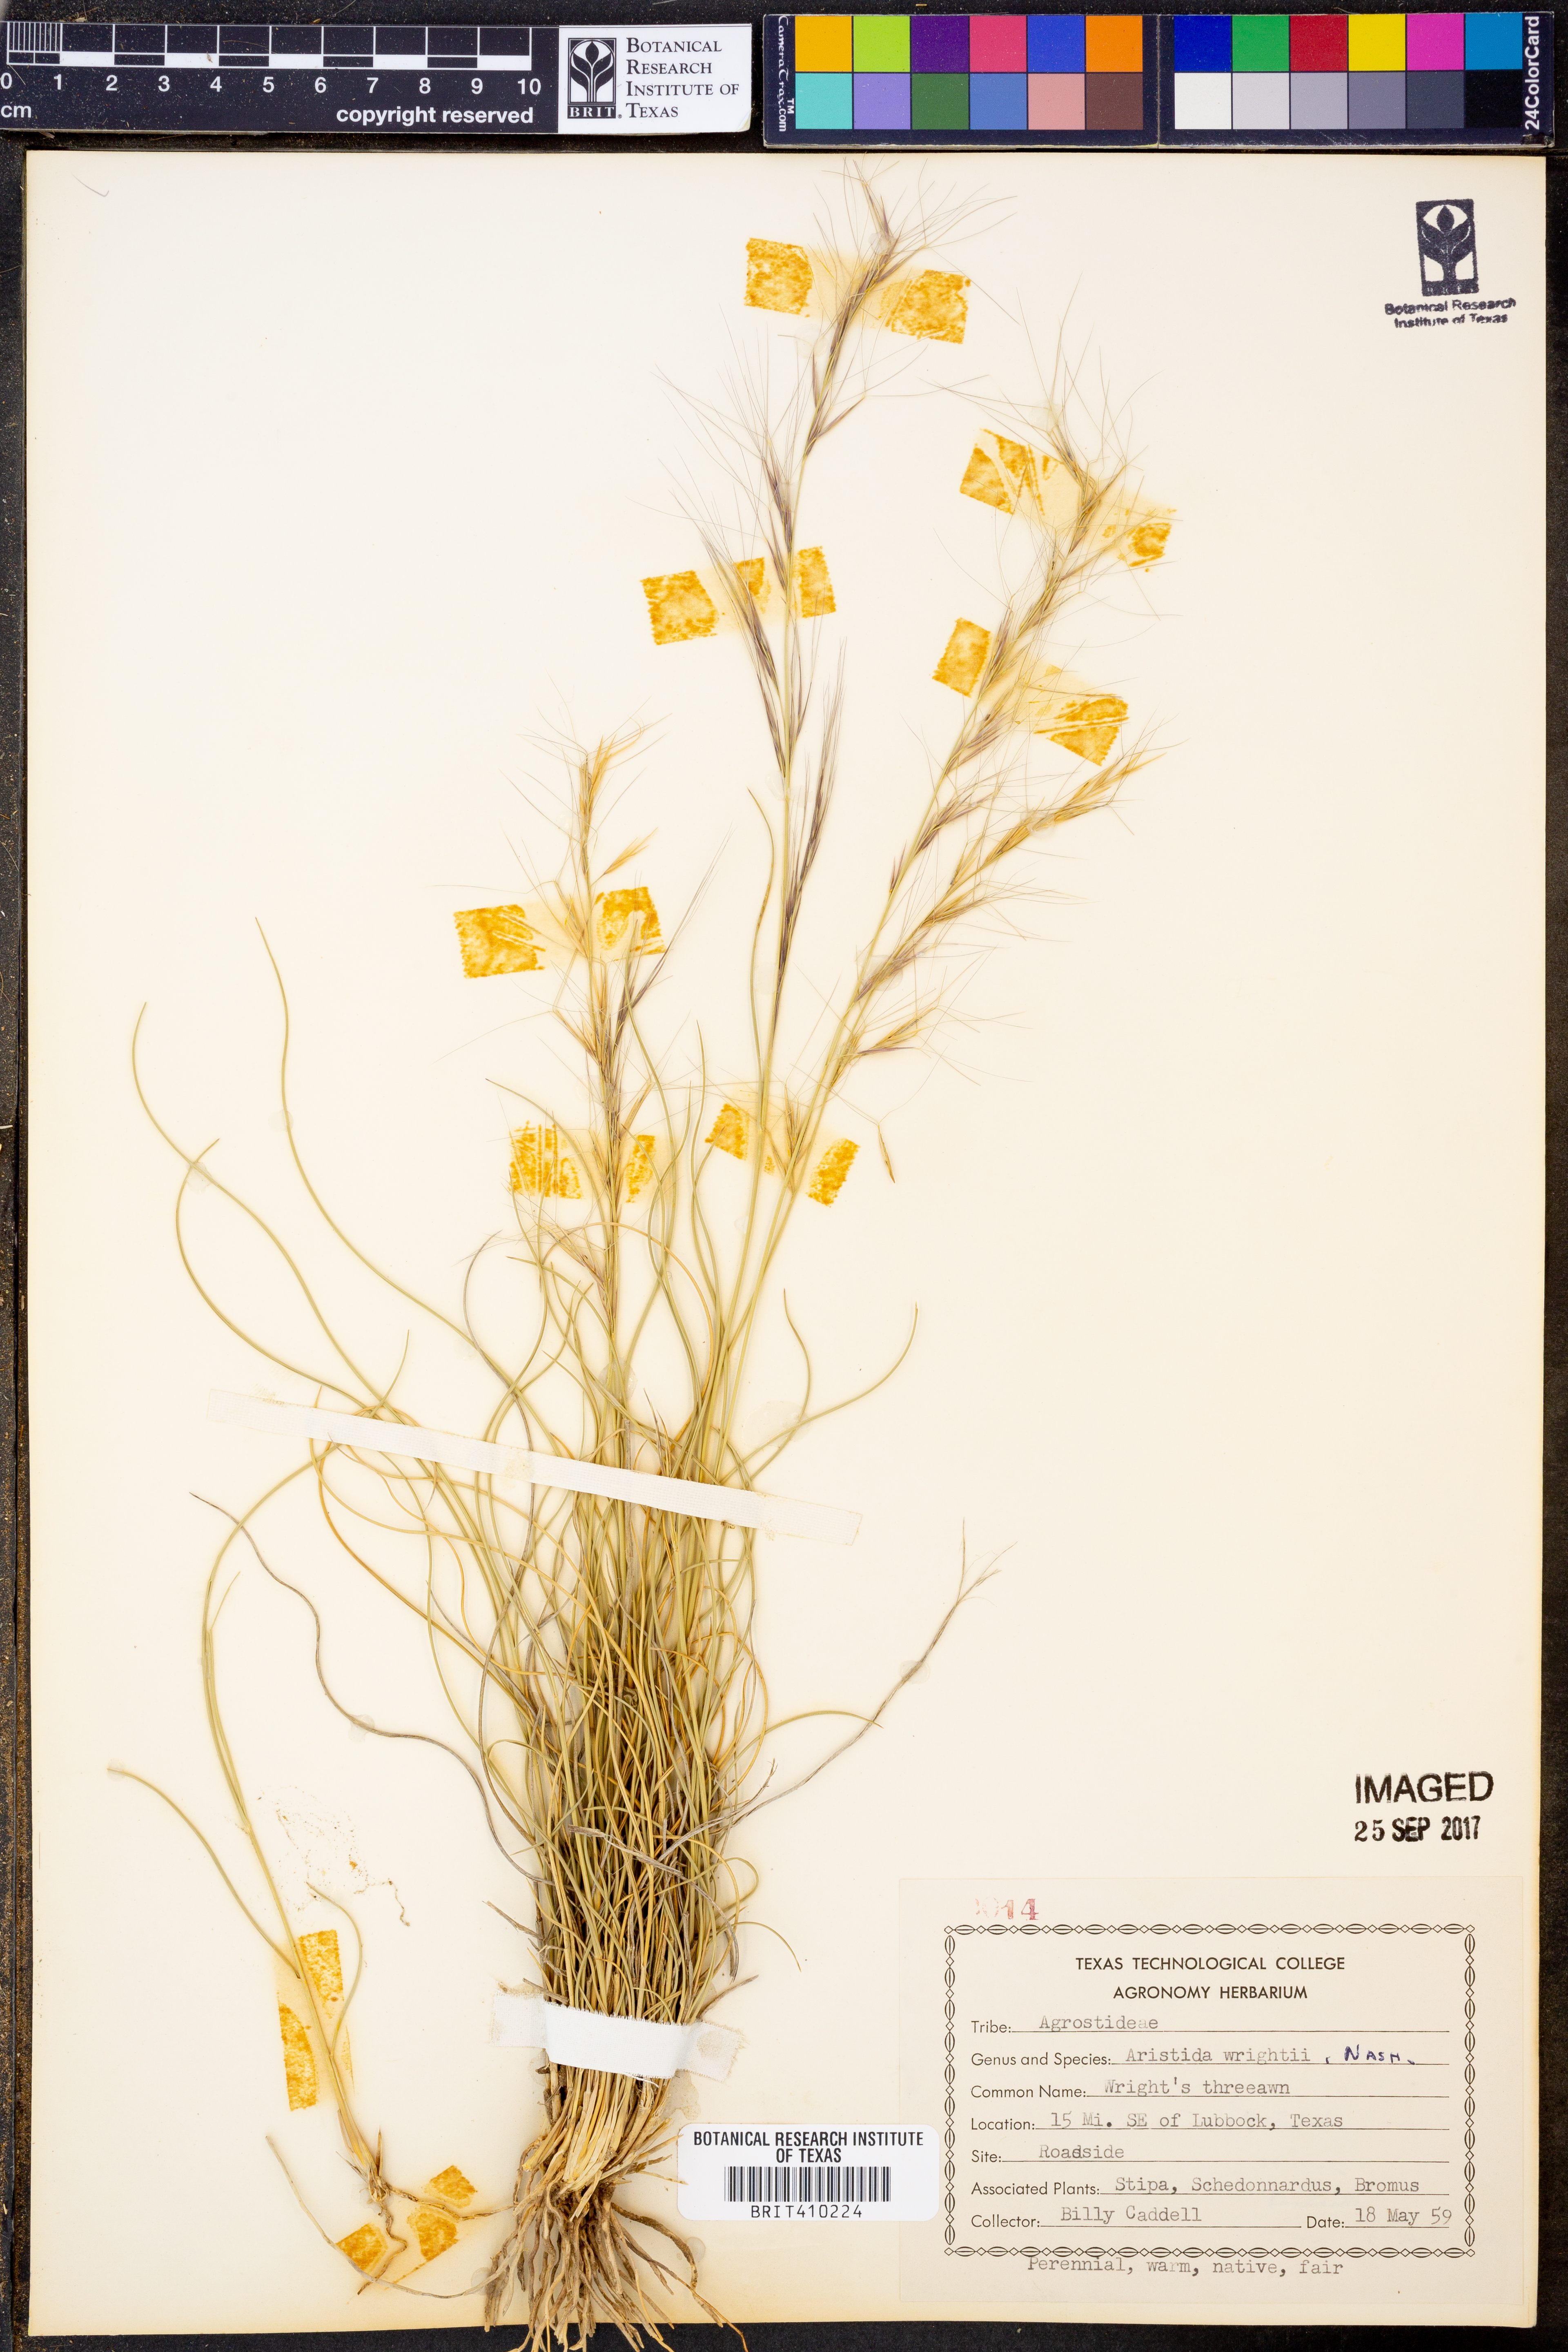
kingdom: Plantae
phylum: Tracheophyta
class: Liliopsida
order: Poales
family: Poaceae
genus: Aristida
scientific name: Aristida wrightii
